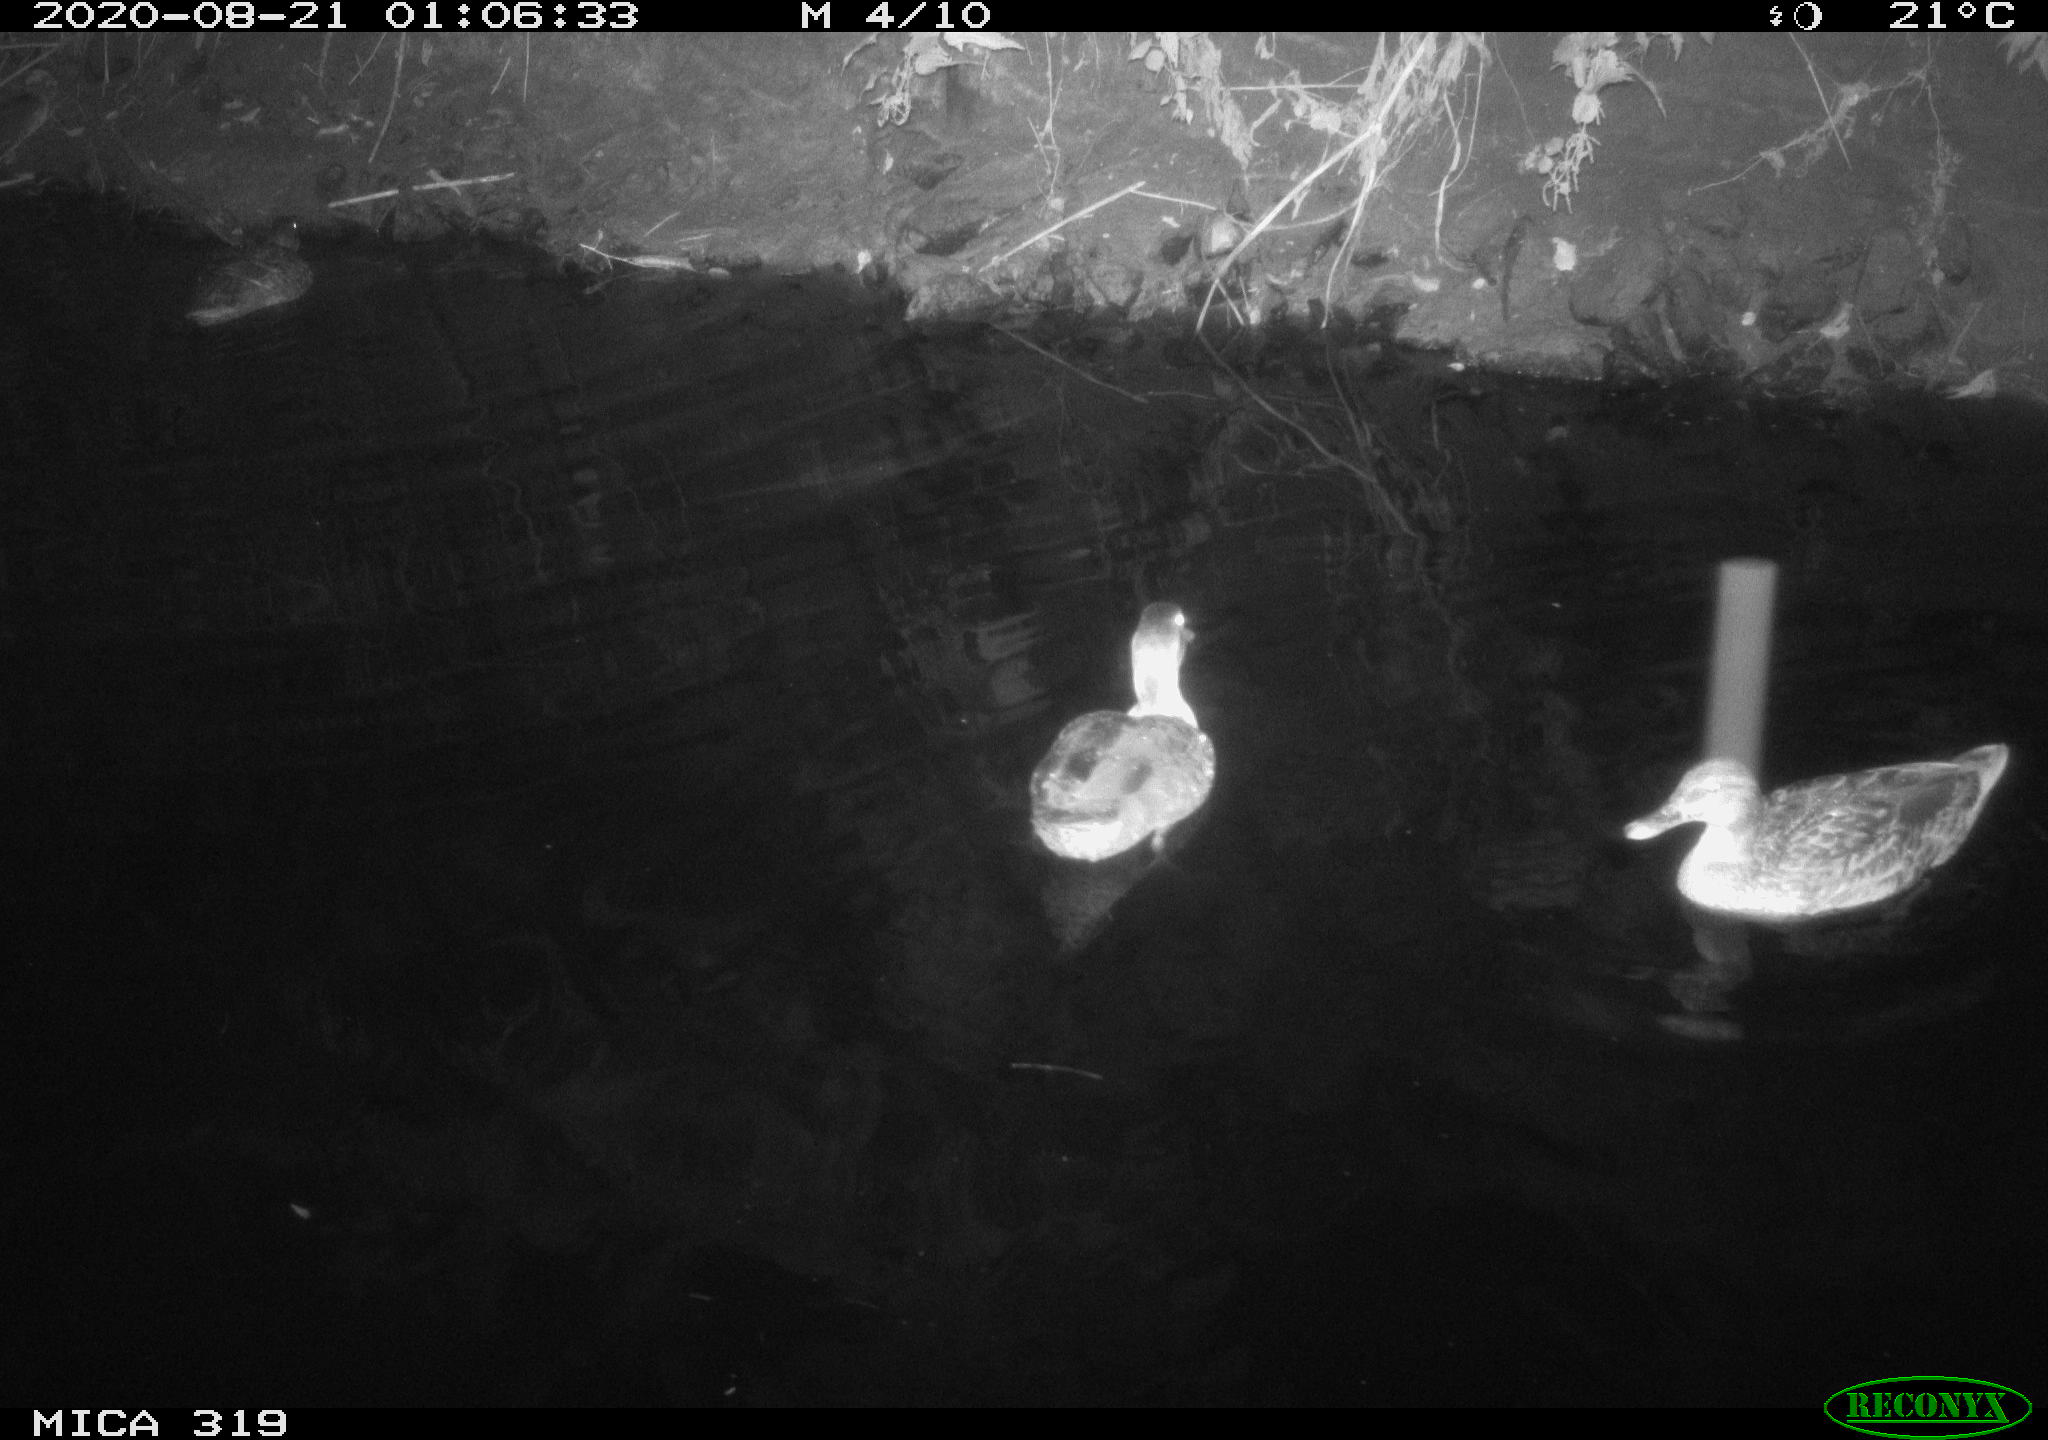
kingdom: Animalia
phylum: Chordata
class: Aves
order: Anseriformes
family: Anatidae
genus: Anas
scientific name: Anas platyrhynchos
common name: Mallard
